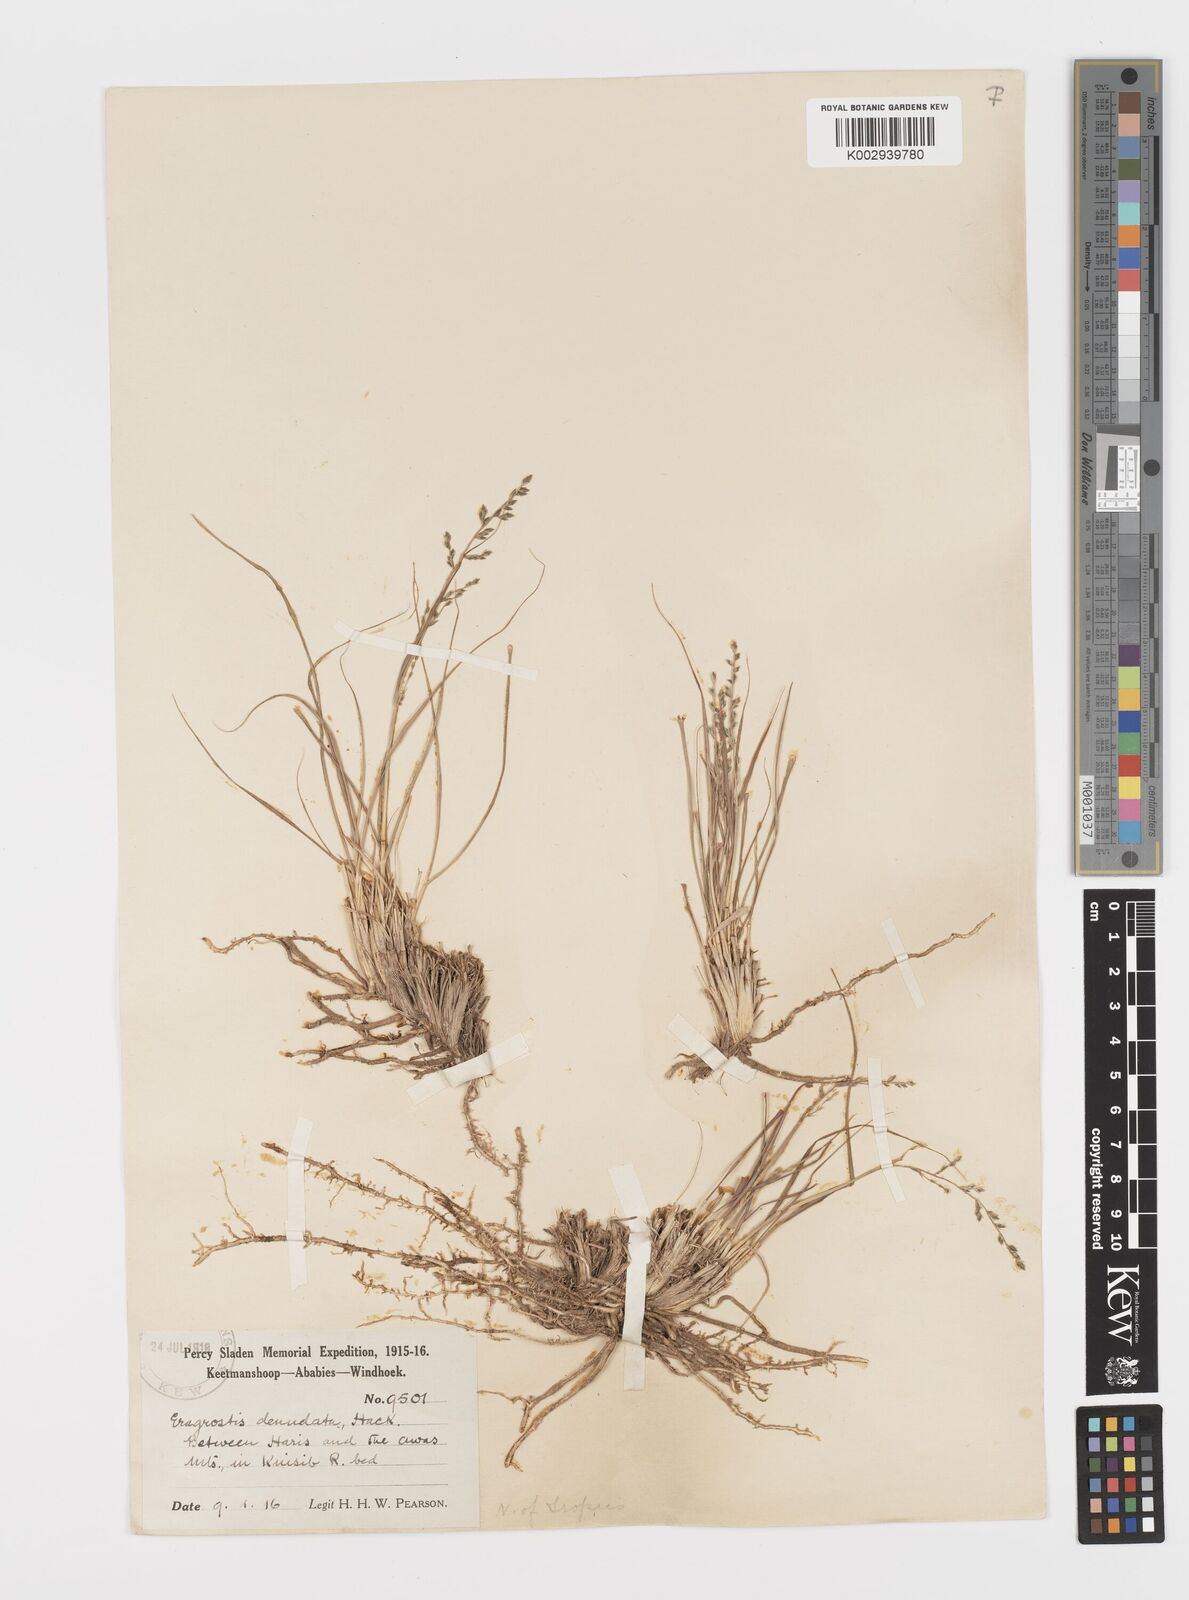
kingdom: Plantae
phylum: Tracheophyta
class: Liliopsida
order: Poales
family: Poaceae
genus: Eragrostis
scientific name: Eragrostis nindensis
